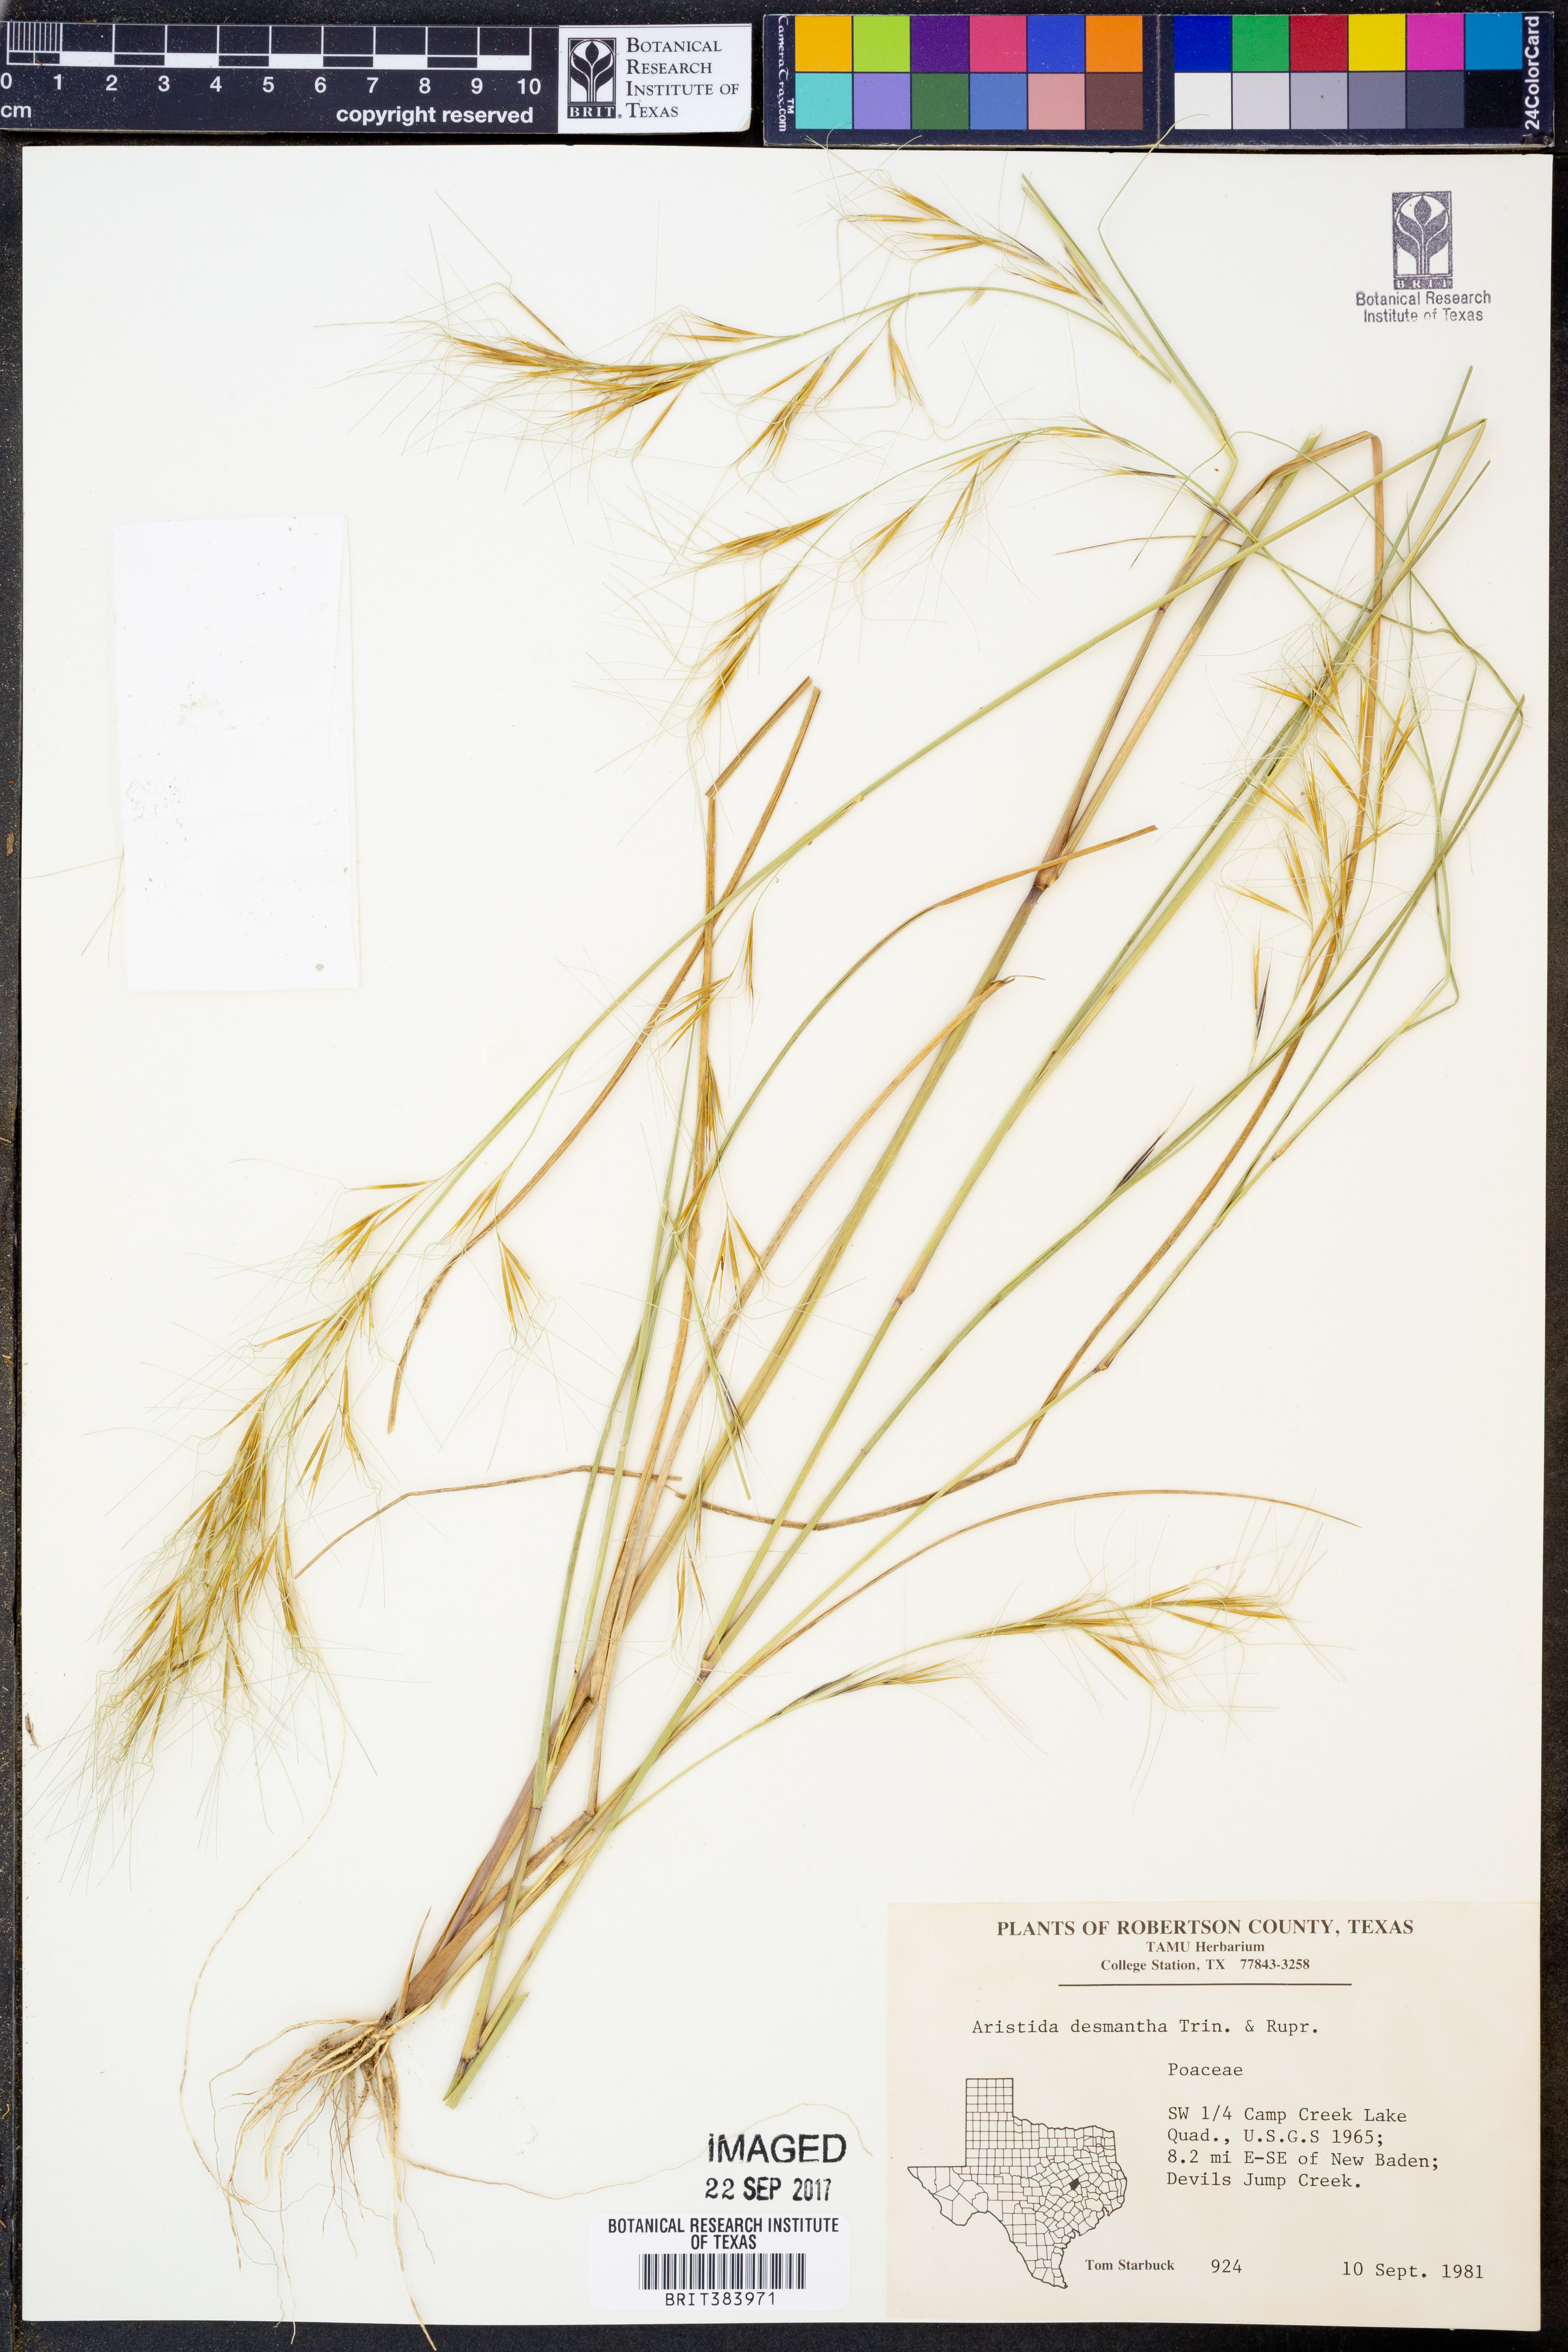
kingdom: Plantae
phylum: Tracheophyta
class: Liliopsida
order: Poales
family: Poaceae
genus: Aristida
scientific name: Aristida desmantha
